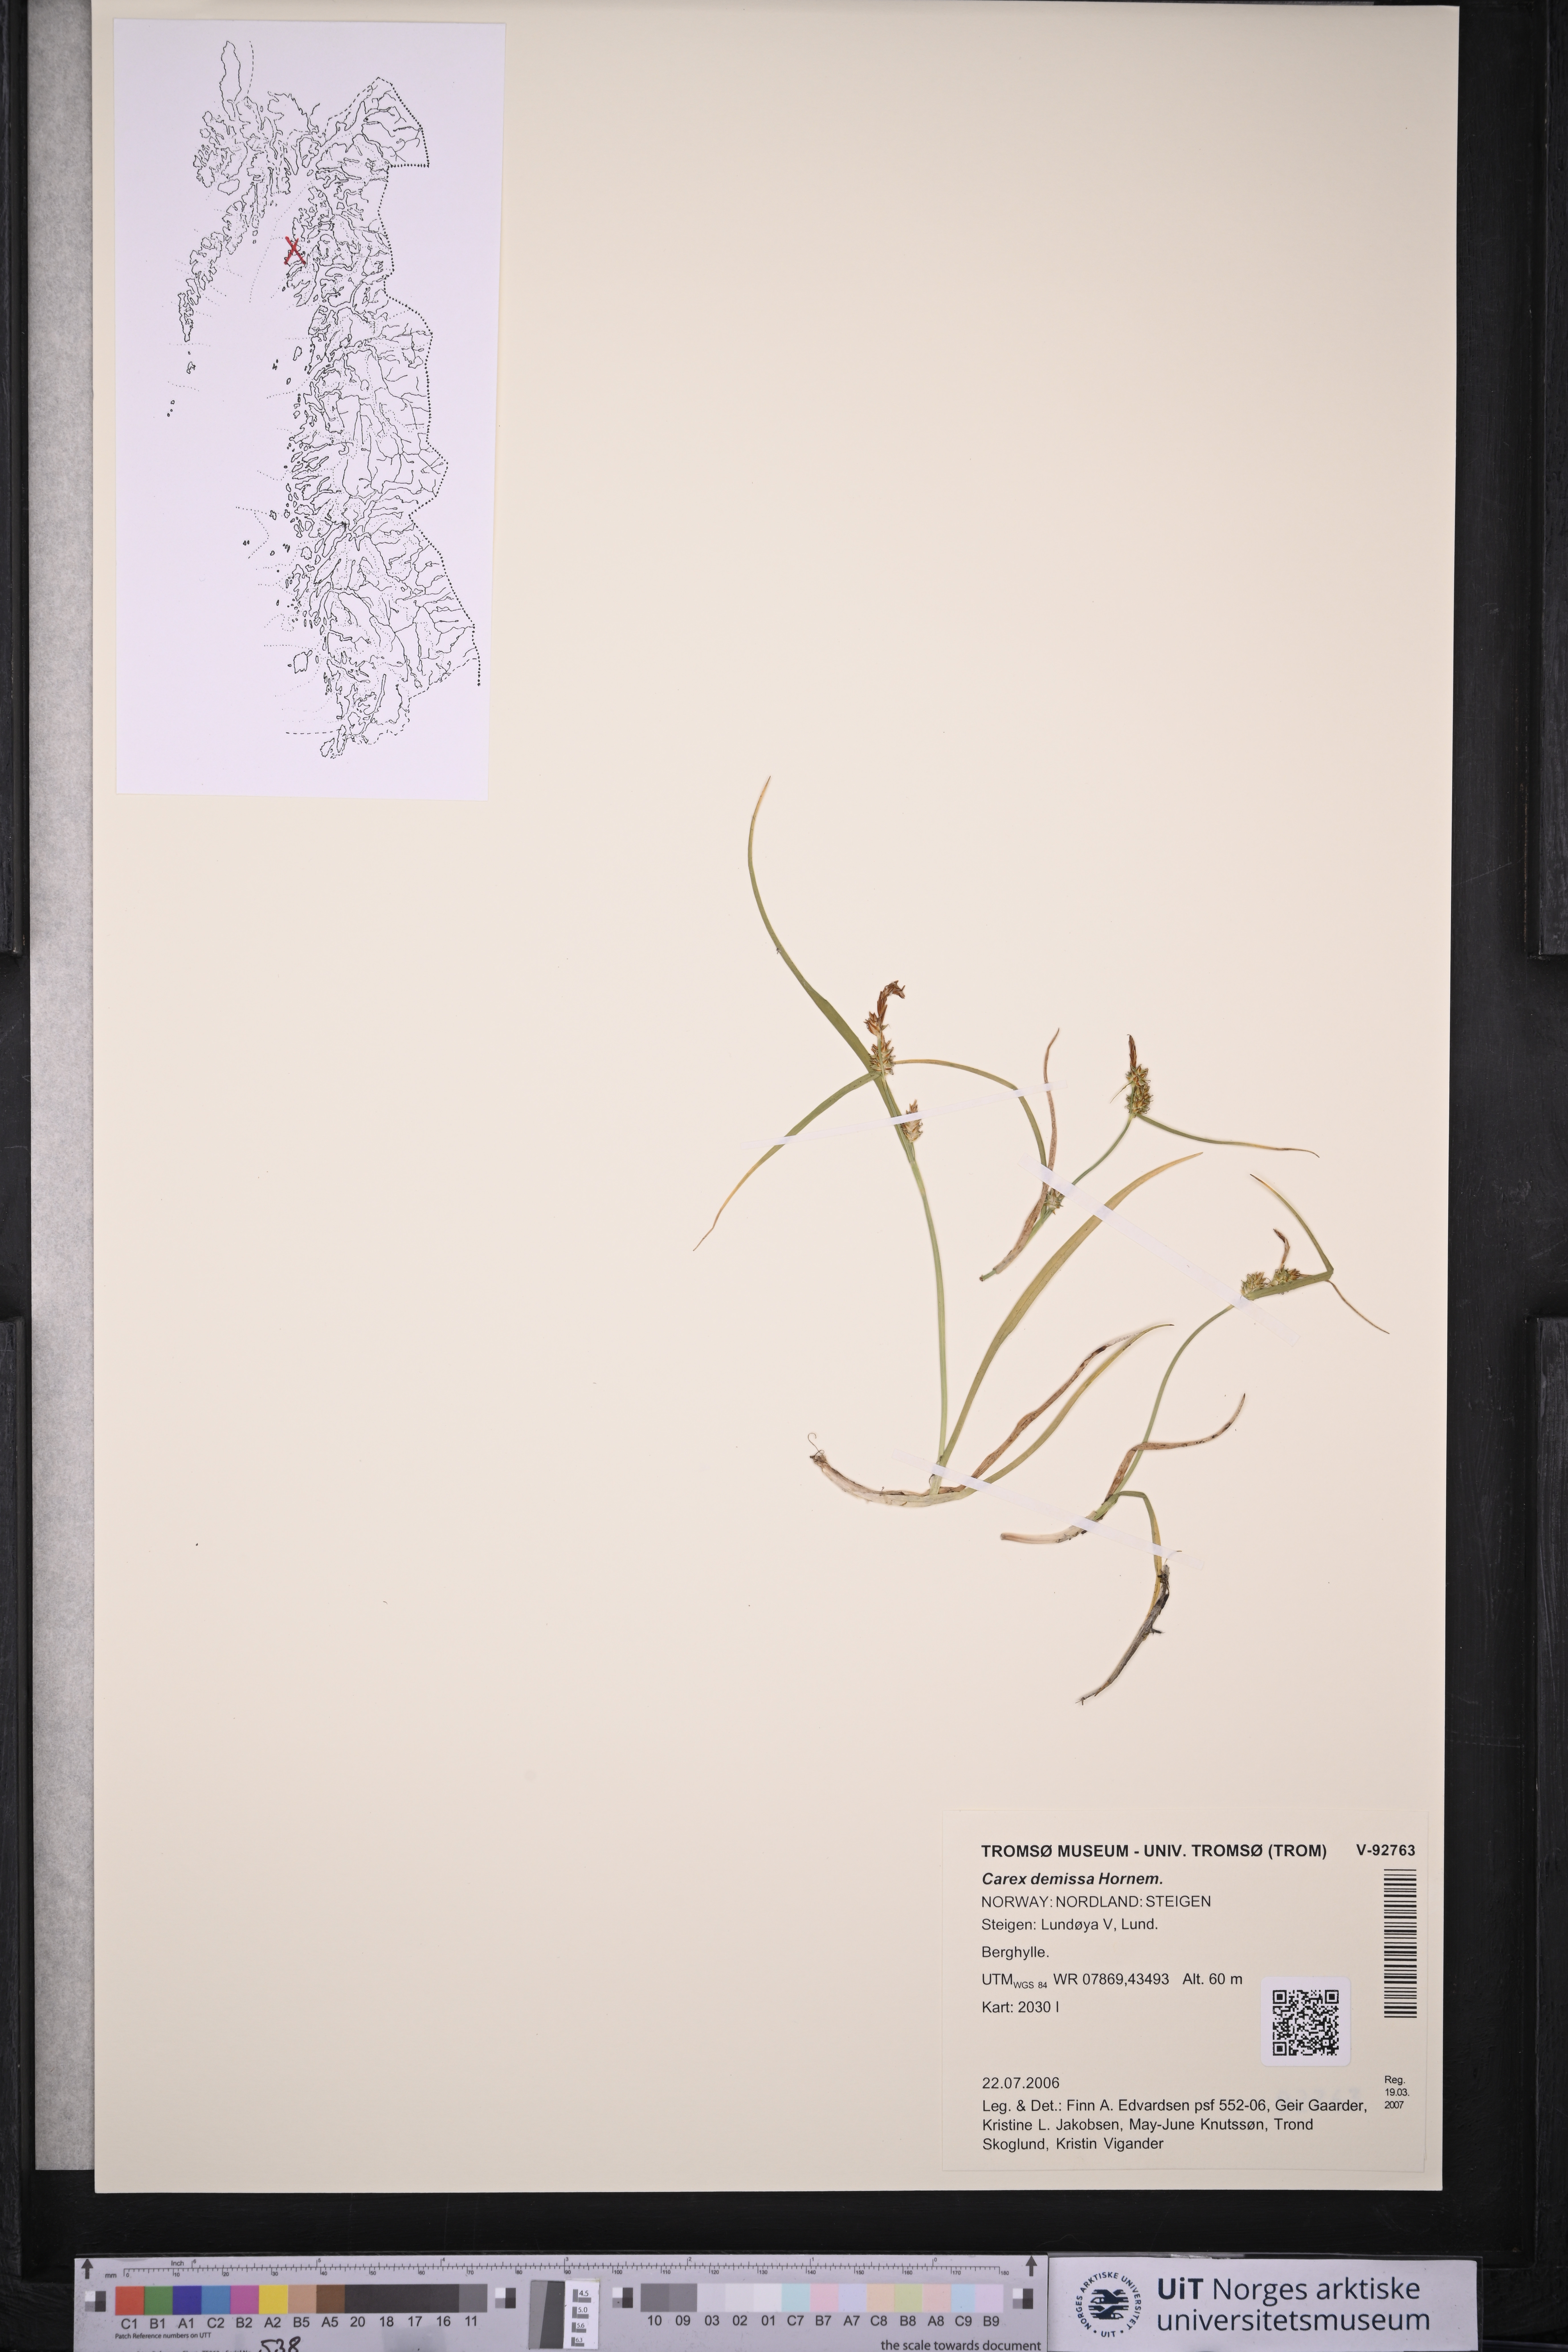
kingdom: Plantae
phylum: Tracheophyta
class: Liliopsida
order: Poales
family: Cyperaceae
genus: Carex
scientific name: Carex demissa
